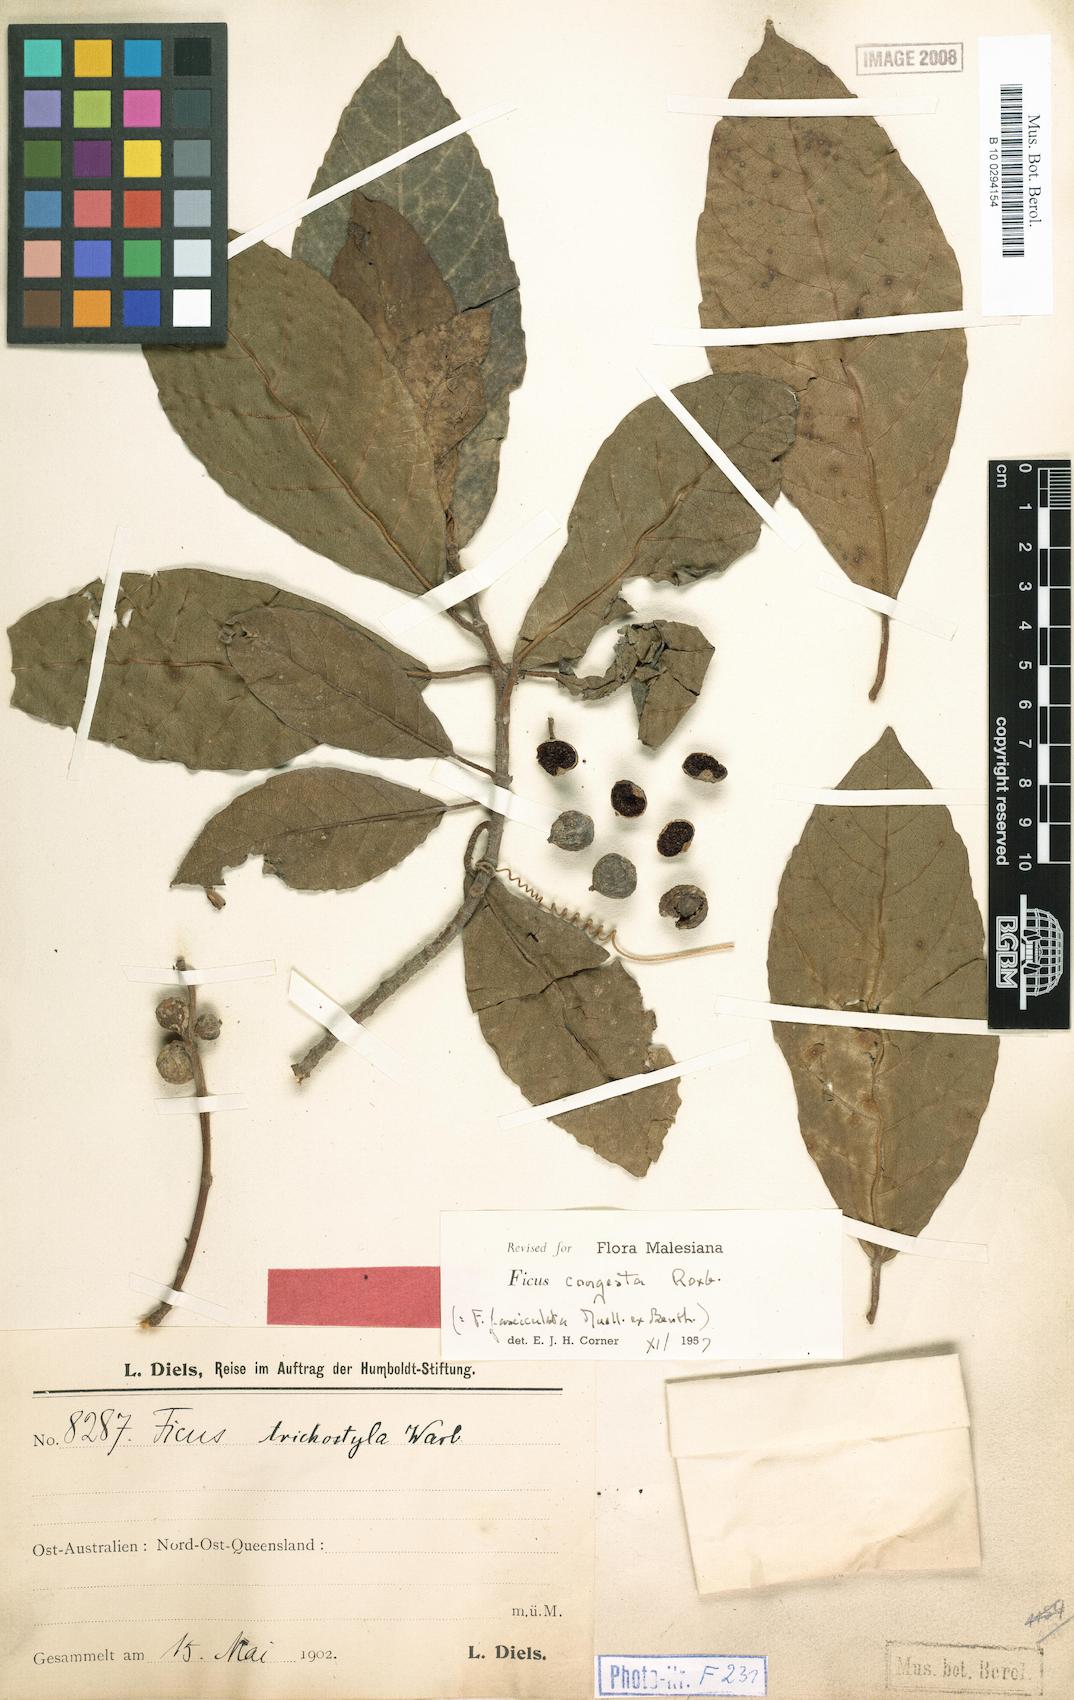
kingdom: Plantae
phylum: Tracheophyta
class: Magnoliopsida
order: Rosales
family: Moraceae
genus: Ficus
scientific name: Ficus congesta
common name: Cluster fig
